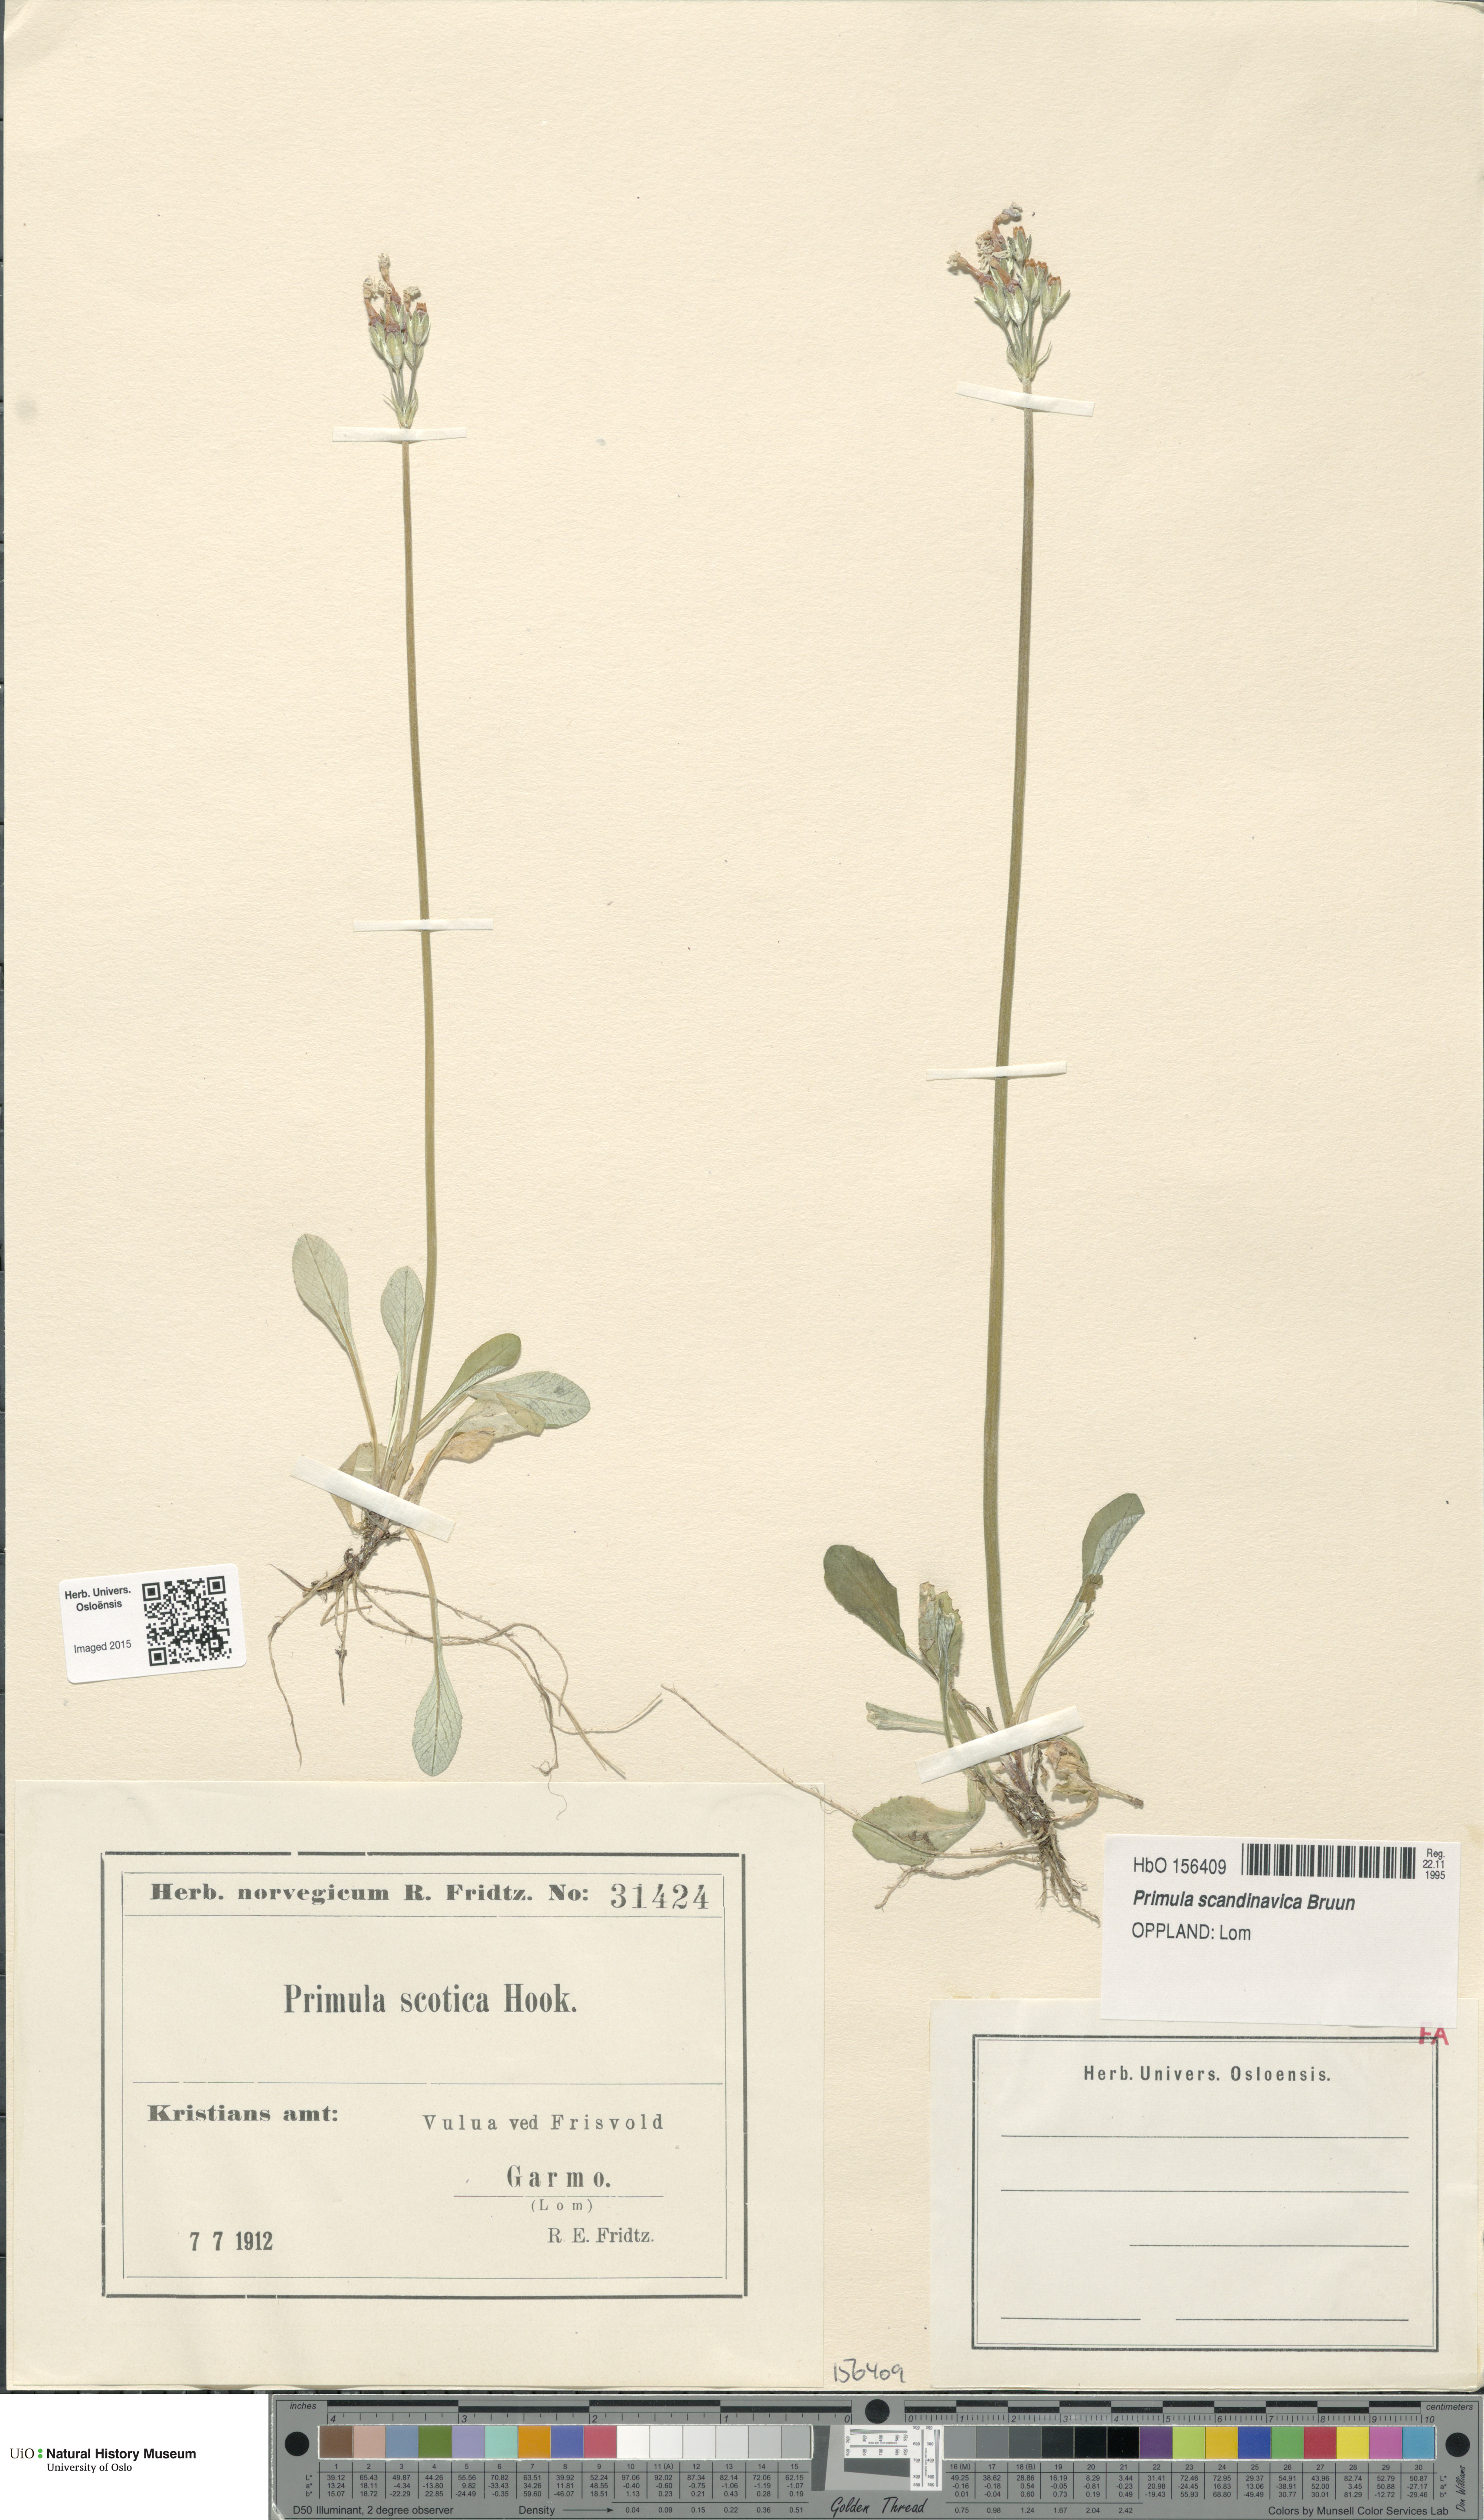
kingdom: Plantae
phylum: Tracheophyta
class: Magnoliopsida
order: Ericales
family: Primulaceae
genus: Primula
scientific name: Primula scandinavica
